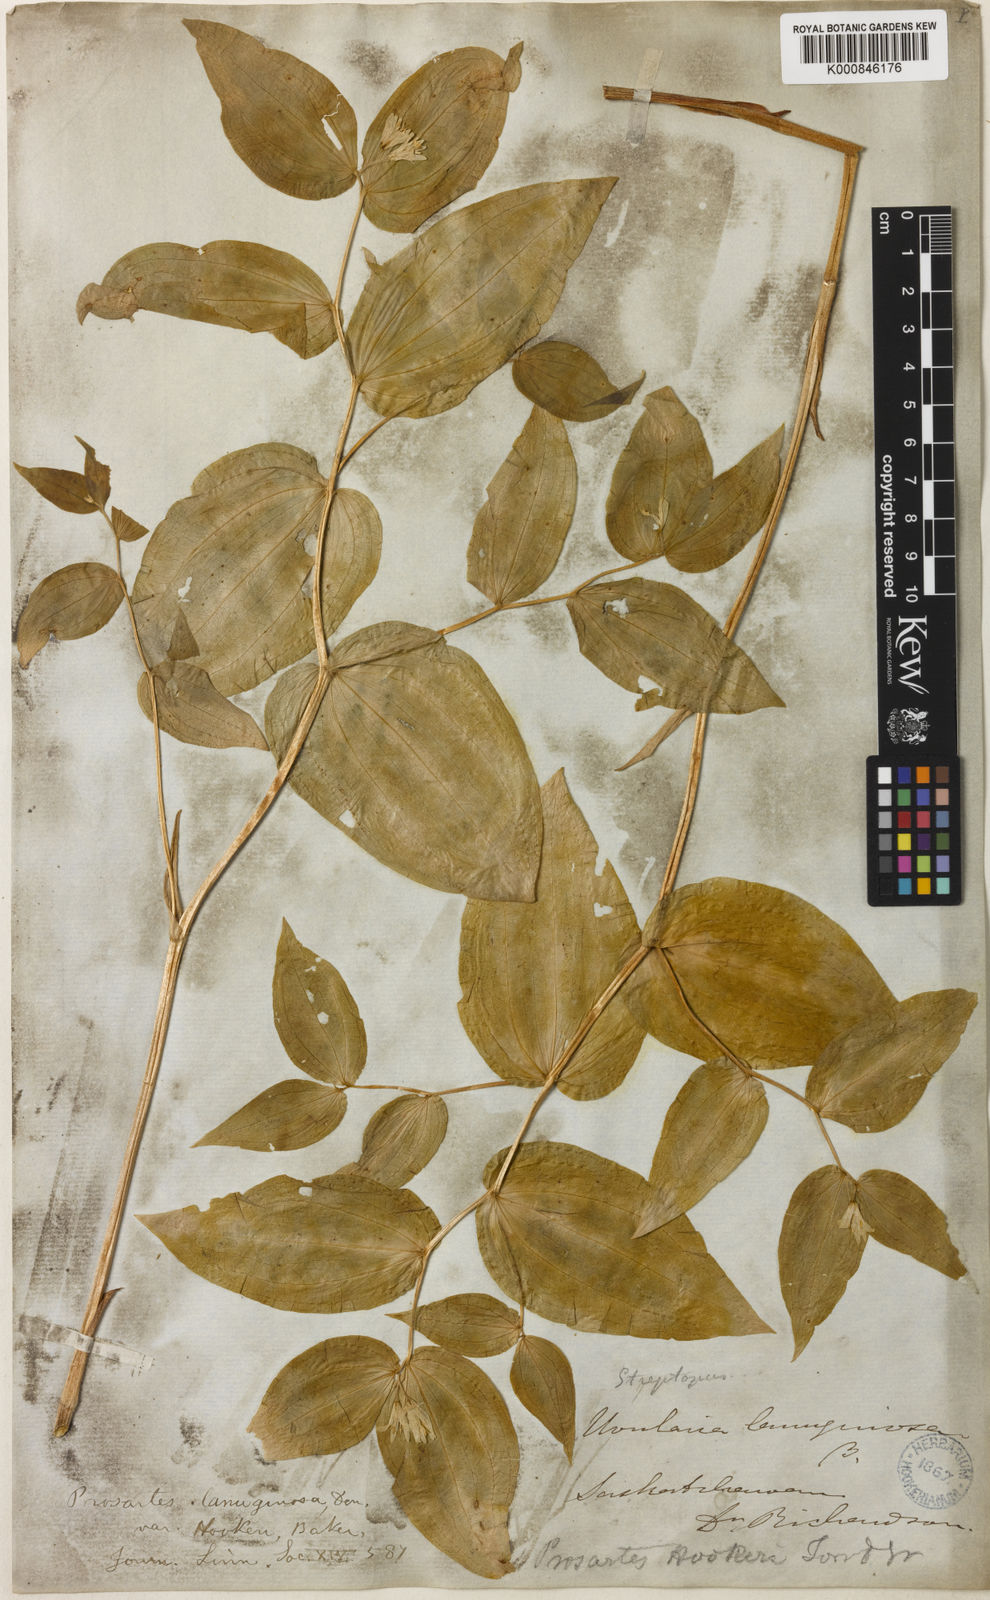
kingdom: Plantae
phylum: Tracheophyta
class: Liliopsida
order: Liliales
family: Liliaceae
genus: Prosartes
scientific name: Prosartes hookeri
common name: Fairy-bells
